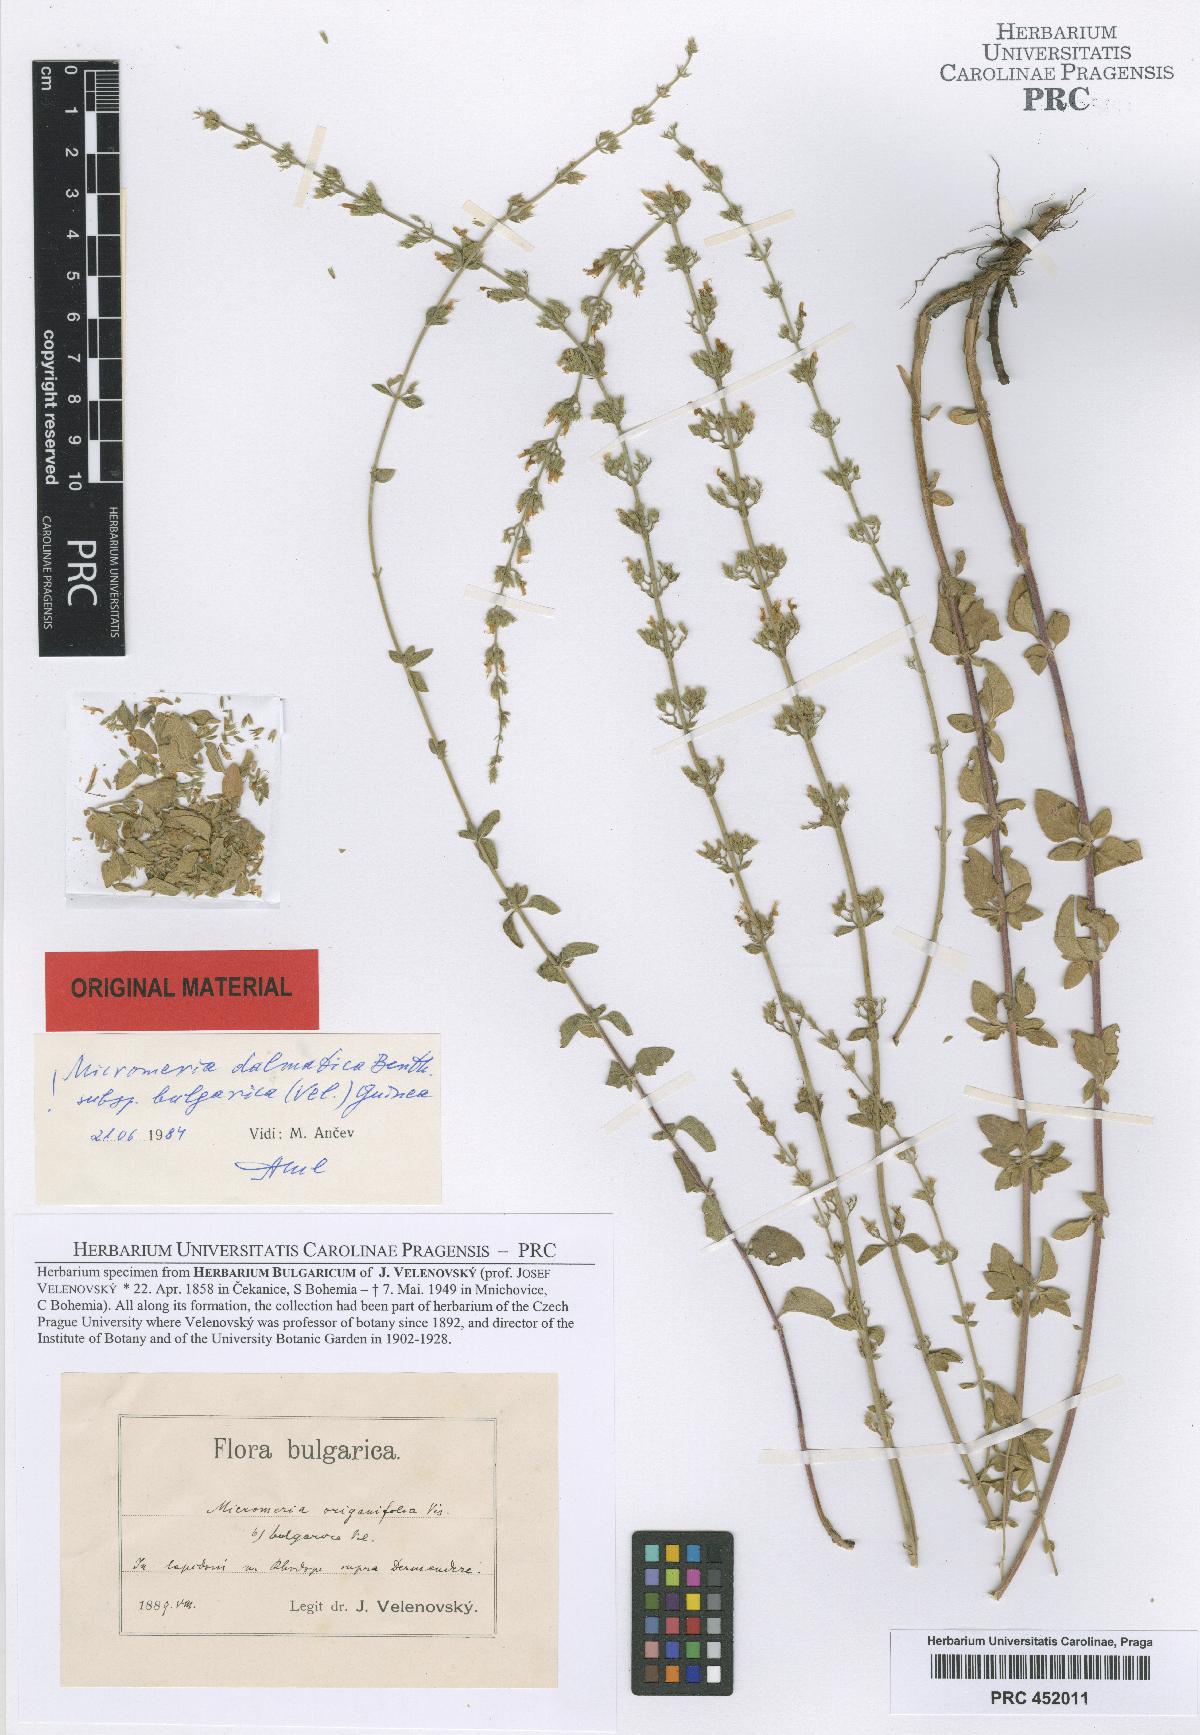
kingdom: Plantae
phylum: Tracheophyta
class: Magnoliopsida
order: Lamiales
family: Lamiaceae
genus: Clinopodium
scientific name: Clinopodium dalmaticum
